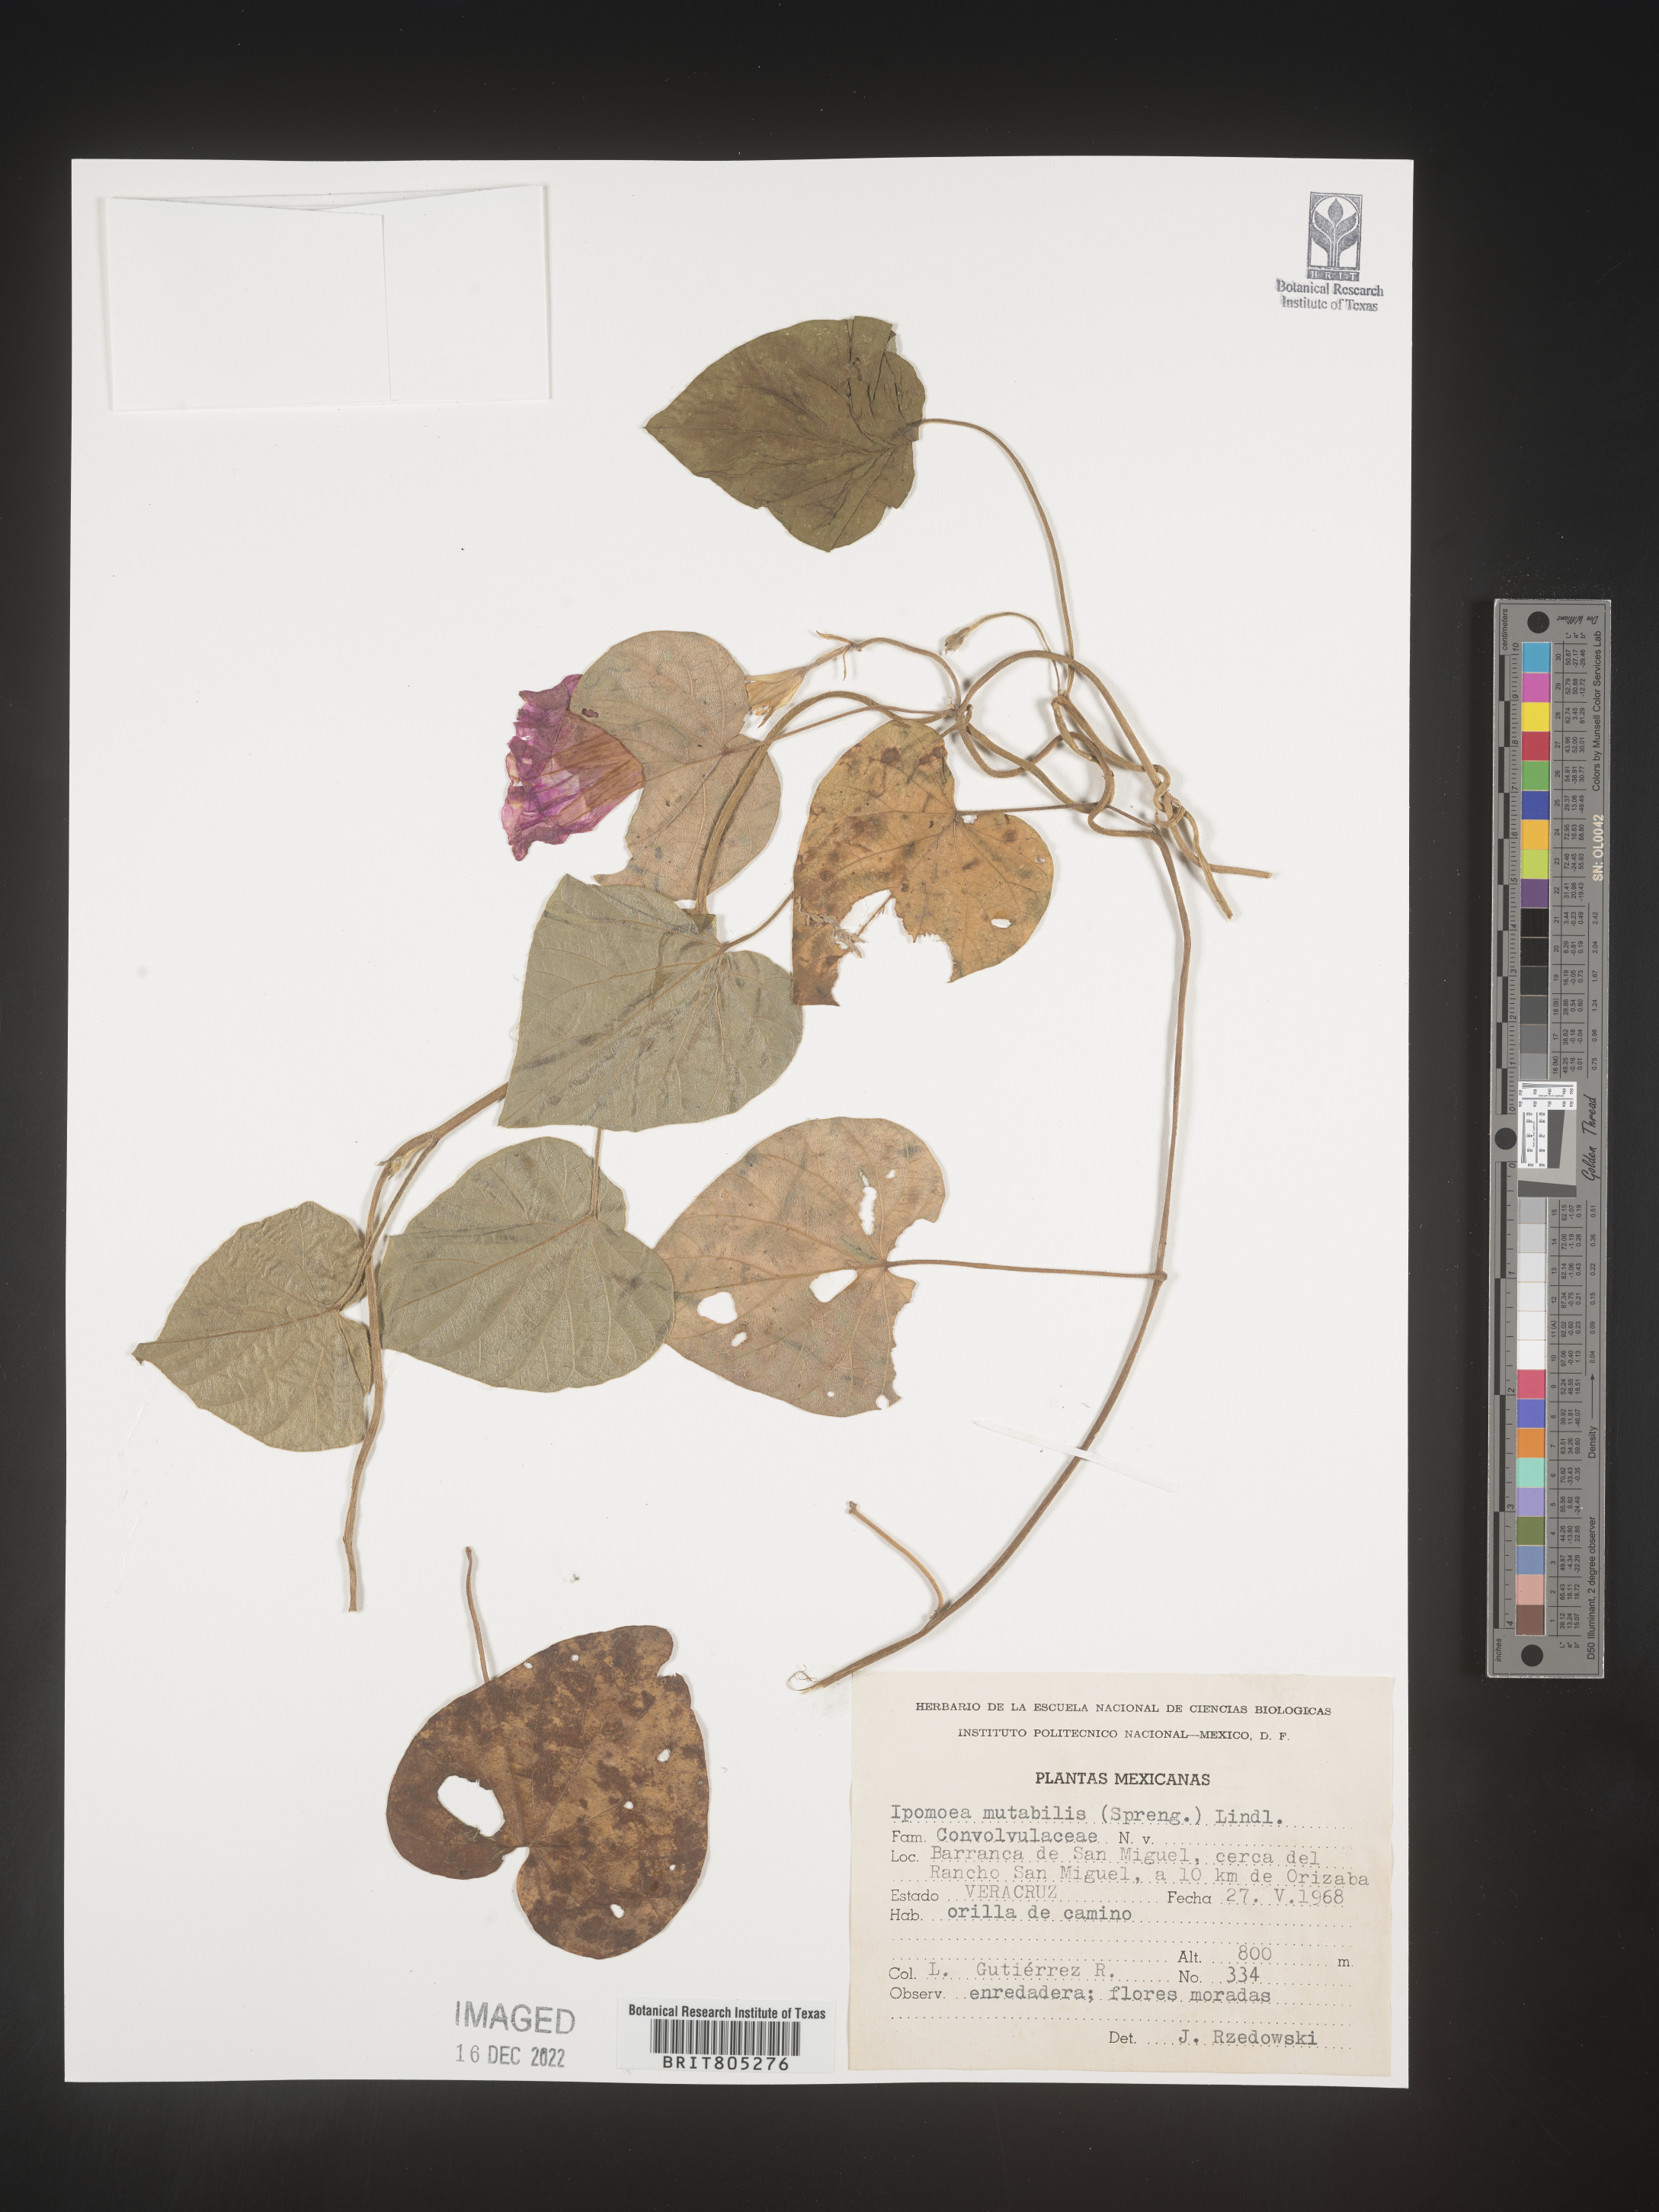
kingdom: Plantae
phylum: Tracheophyta
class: Magnoliopsida
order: Solanales
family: Convolvulaceae
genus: Ipomoea
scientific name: Ipomoea
